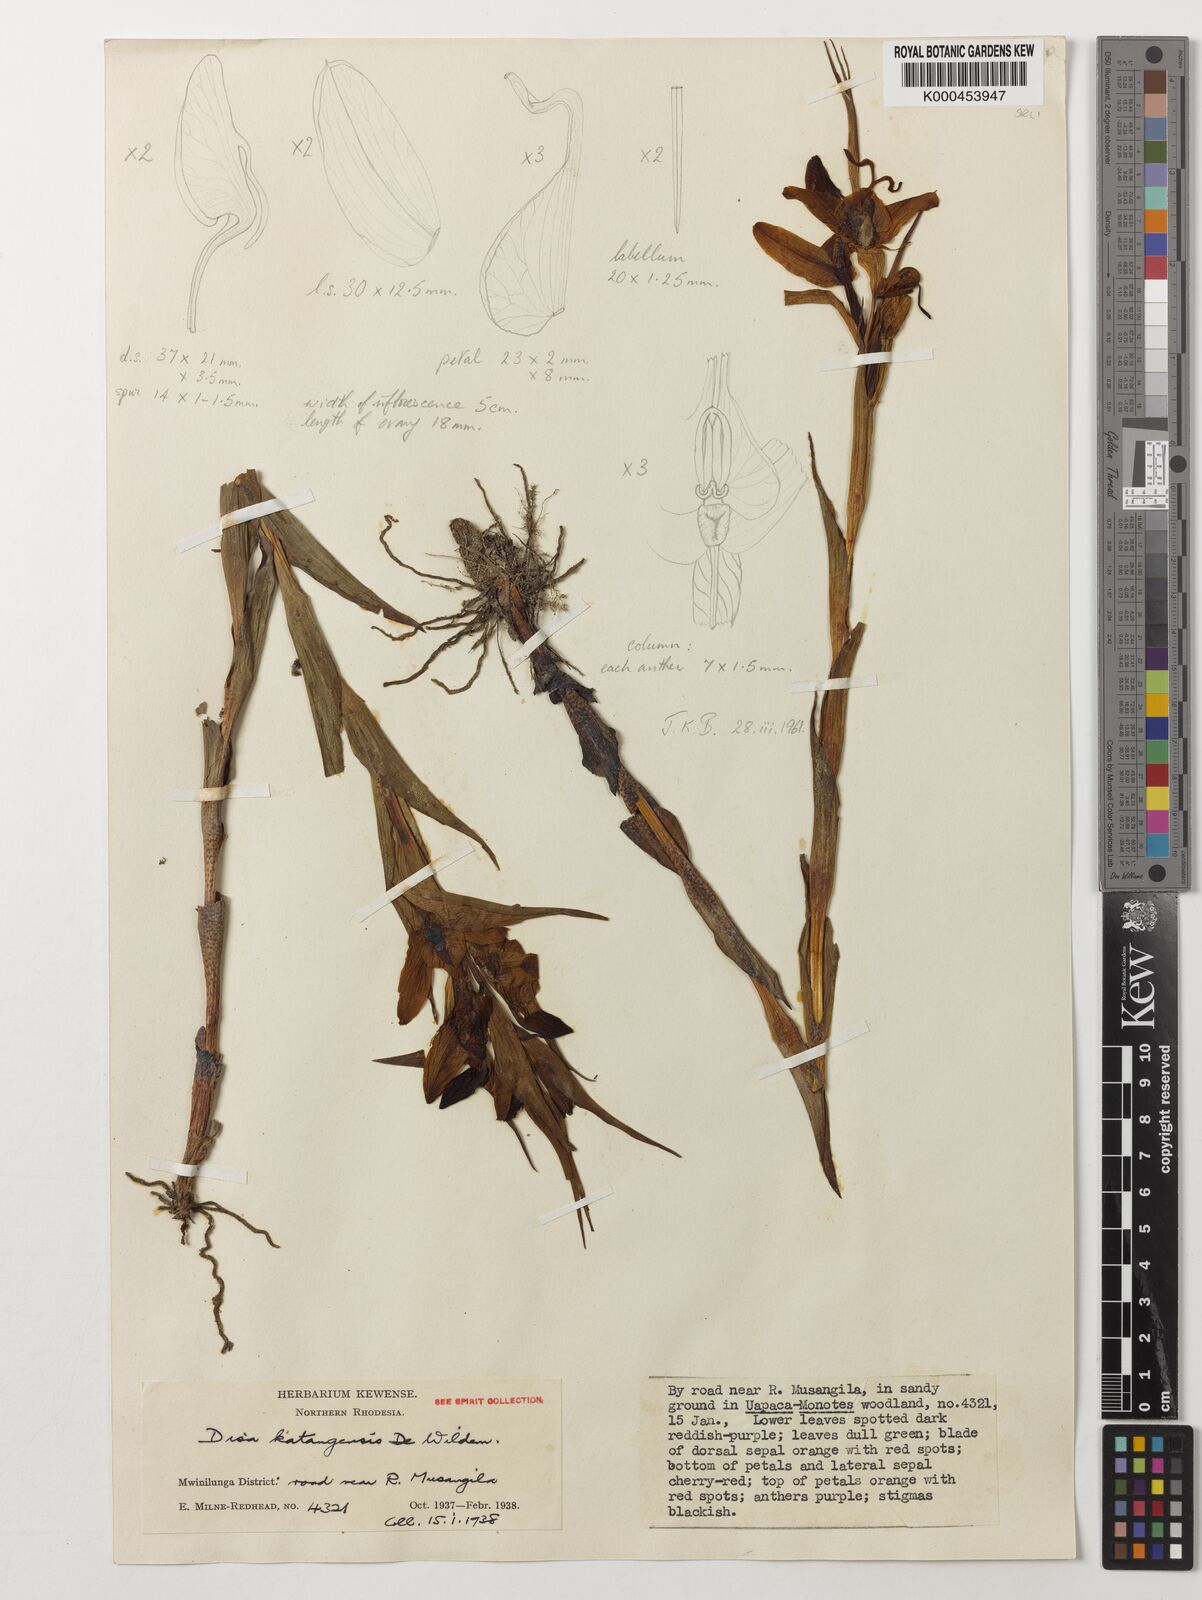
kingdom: Plantae
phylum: Tracheophyta
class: Liliopsida
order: Asparagales
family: Orchidaceae
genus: Disa
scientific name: Disa katangensis
